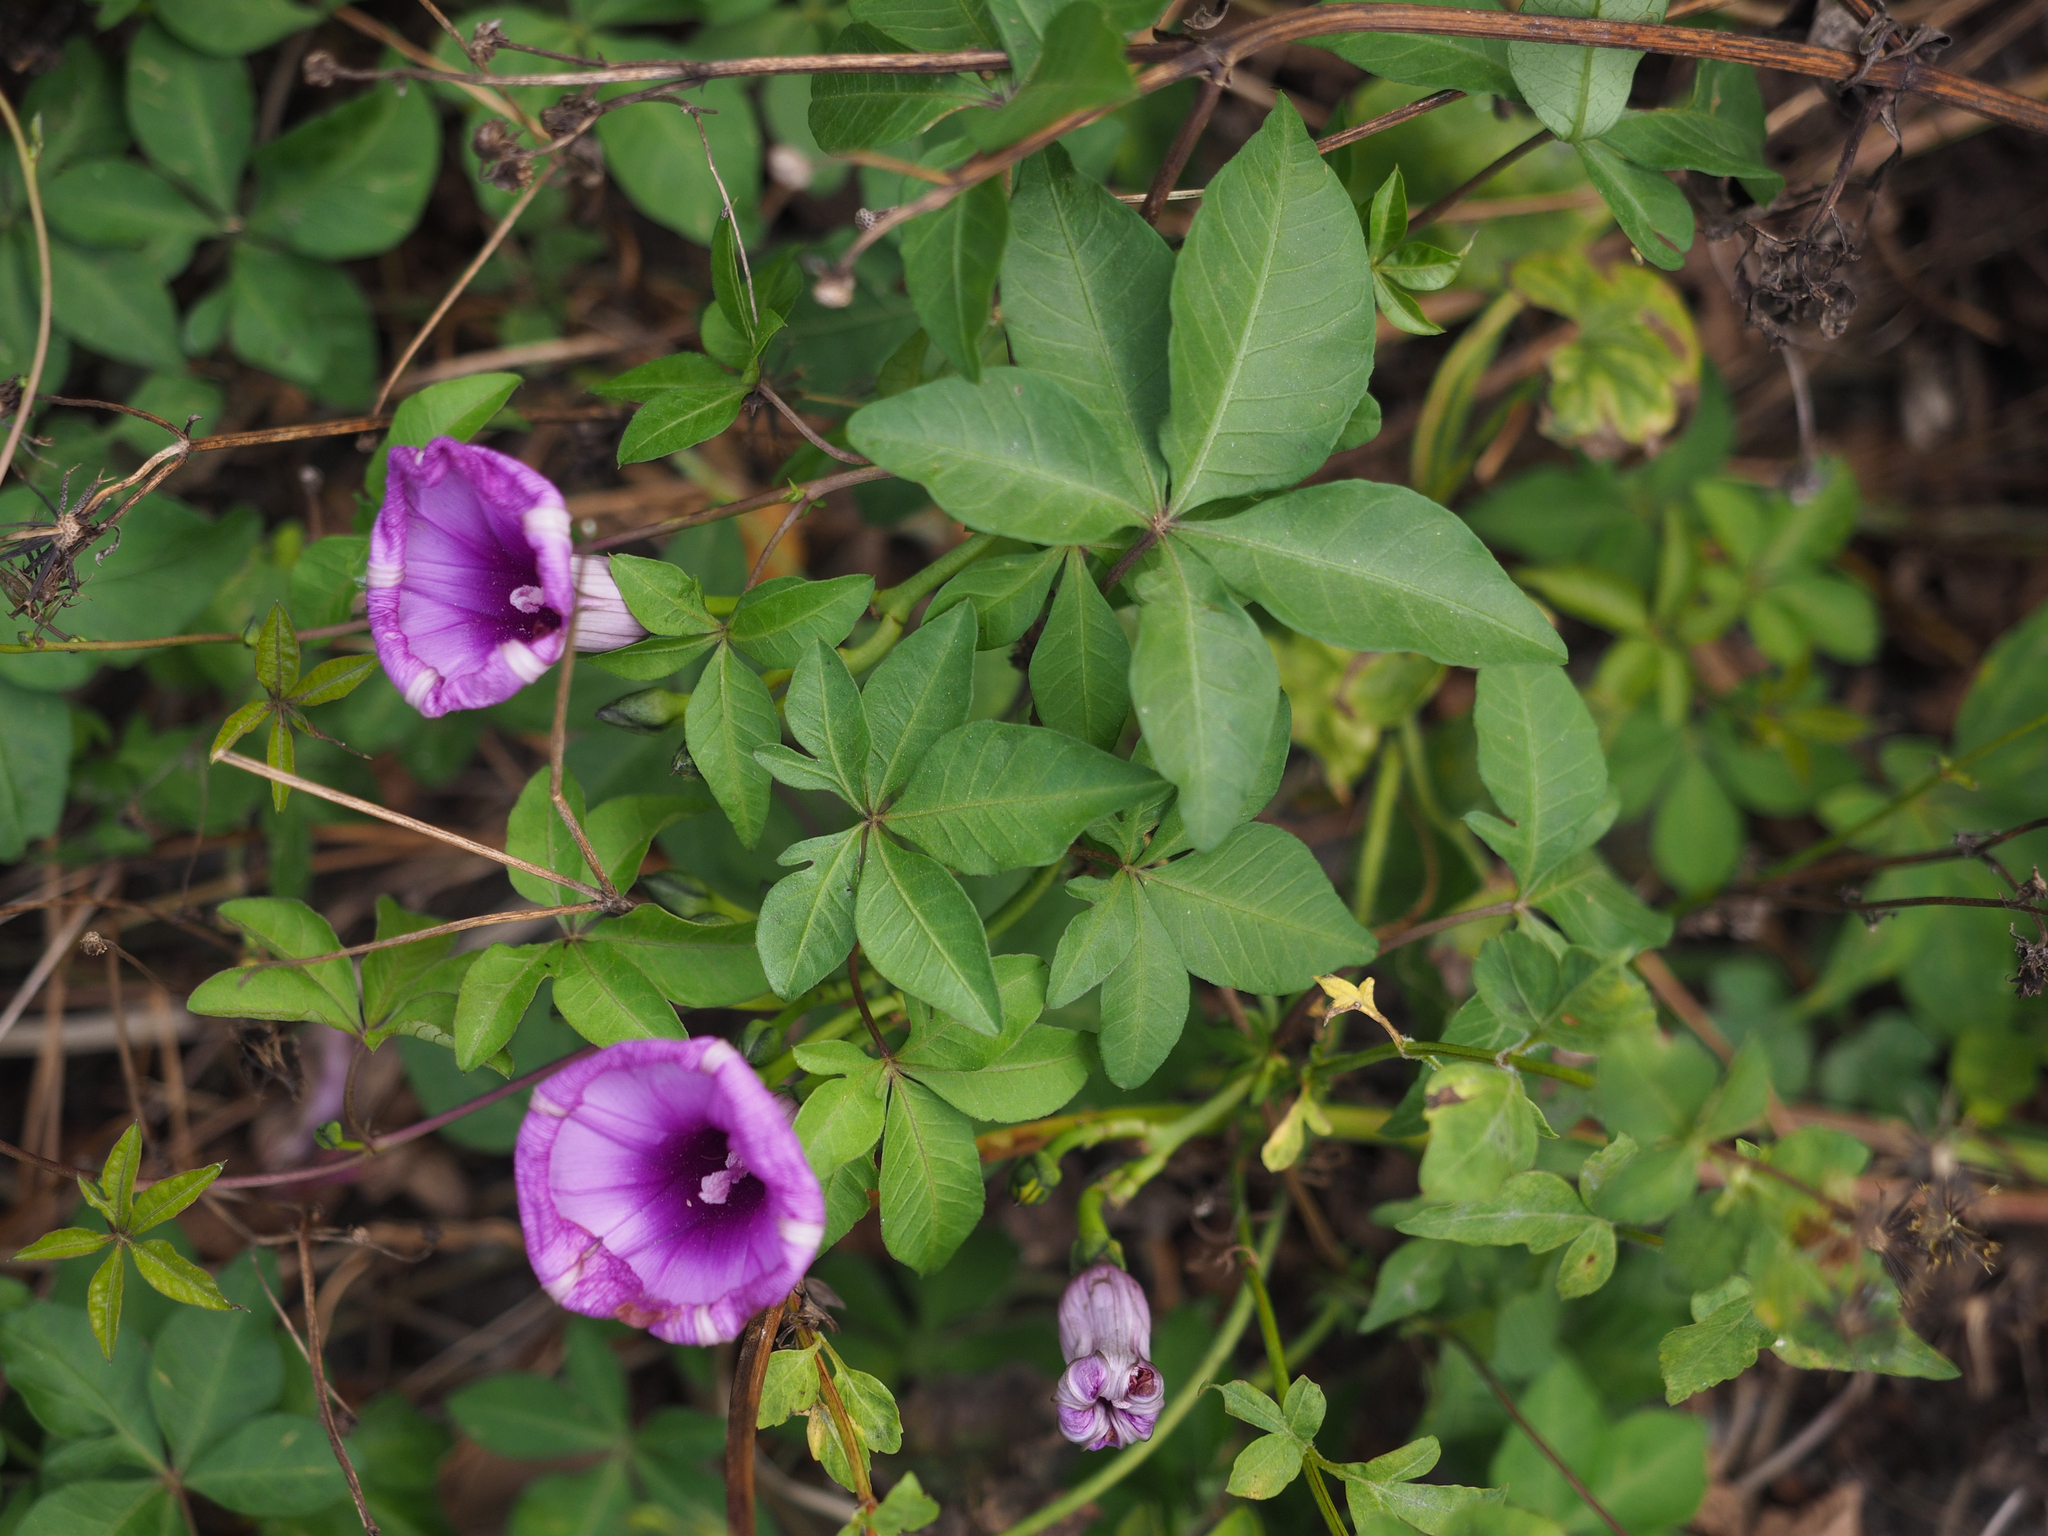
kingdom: Plantae
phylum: Tracheophyta
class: Magnoliopsida
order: Solanales
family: Convolvulaceae
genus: Ipomoea
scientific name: Ipomoea cairica
